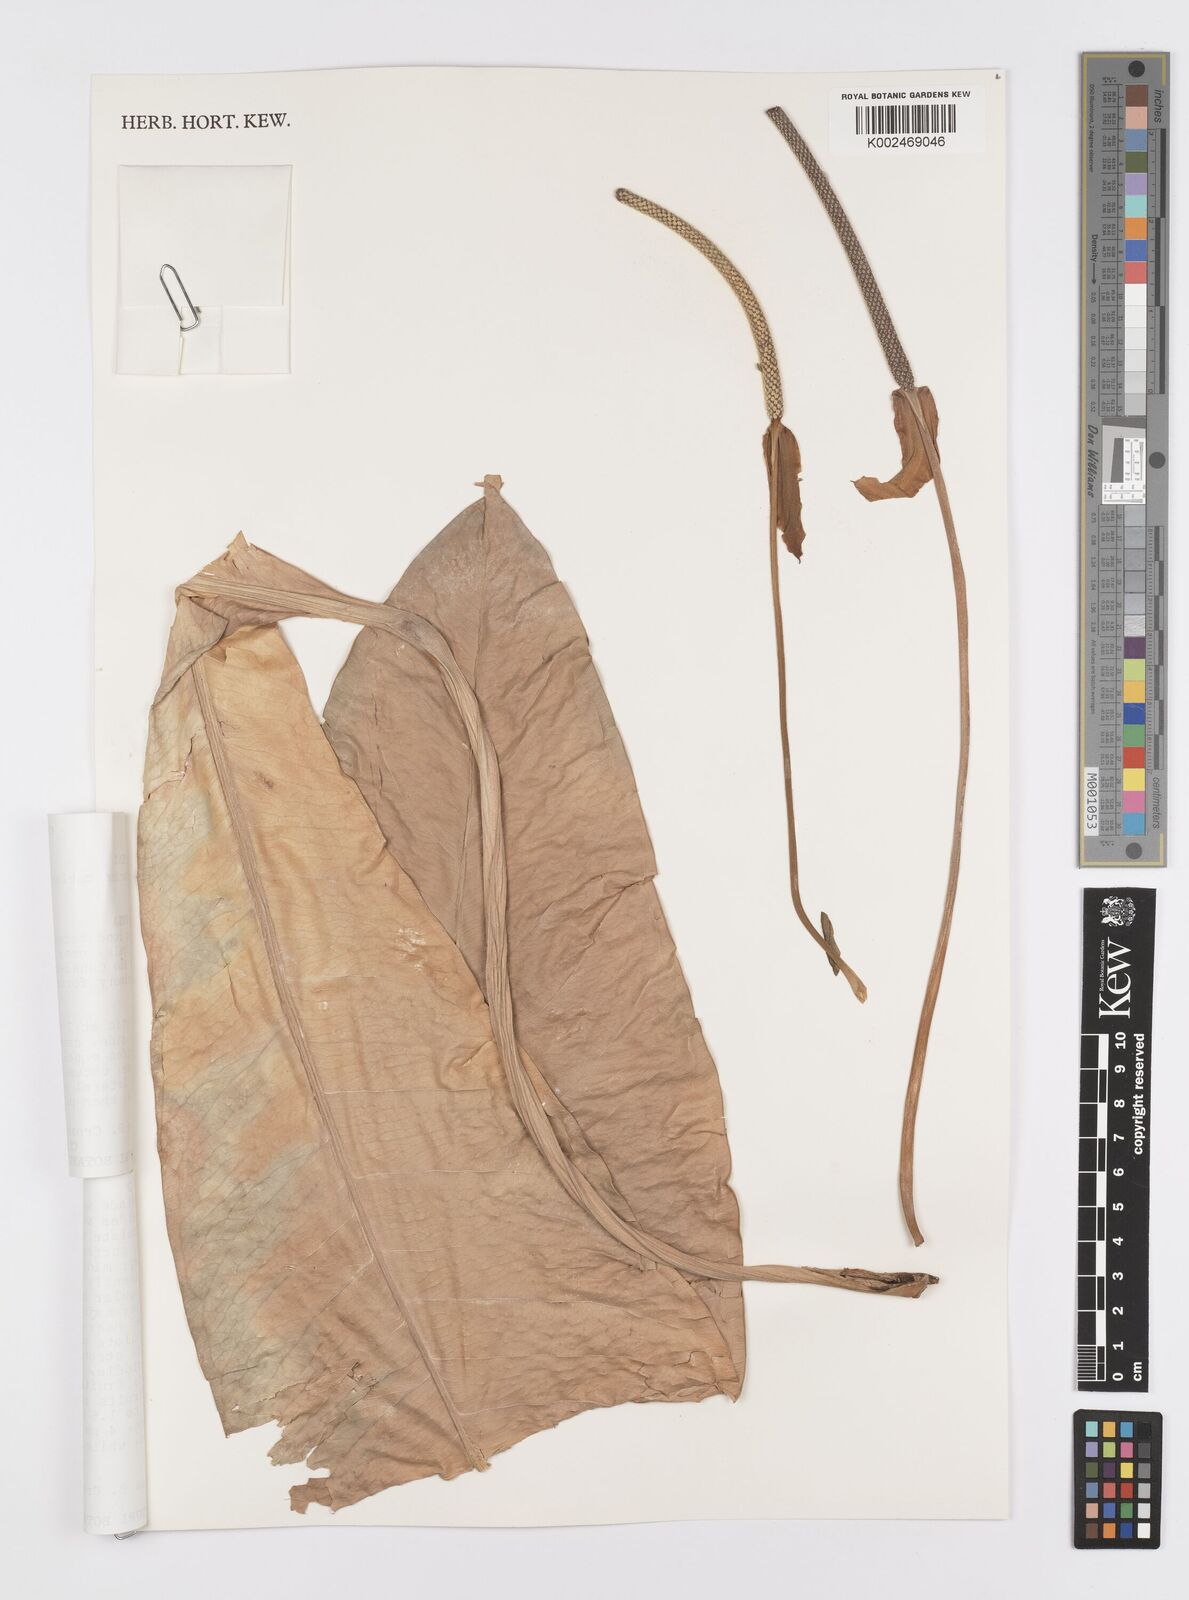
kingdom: Plantae
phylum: Tracheophyta
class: Liliopsida
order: Alismatales
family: Araceae
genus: Anthurium
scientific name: Anthurium upalaense
